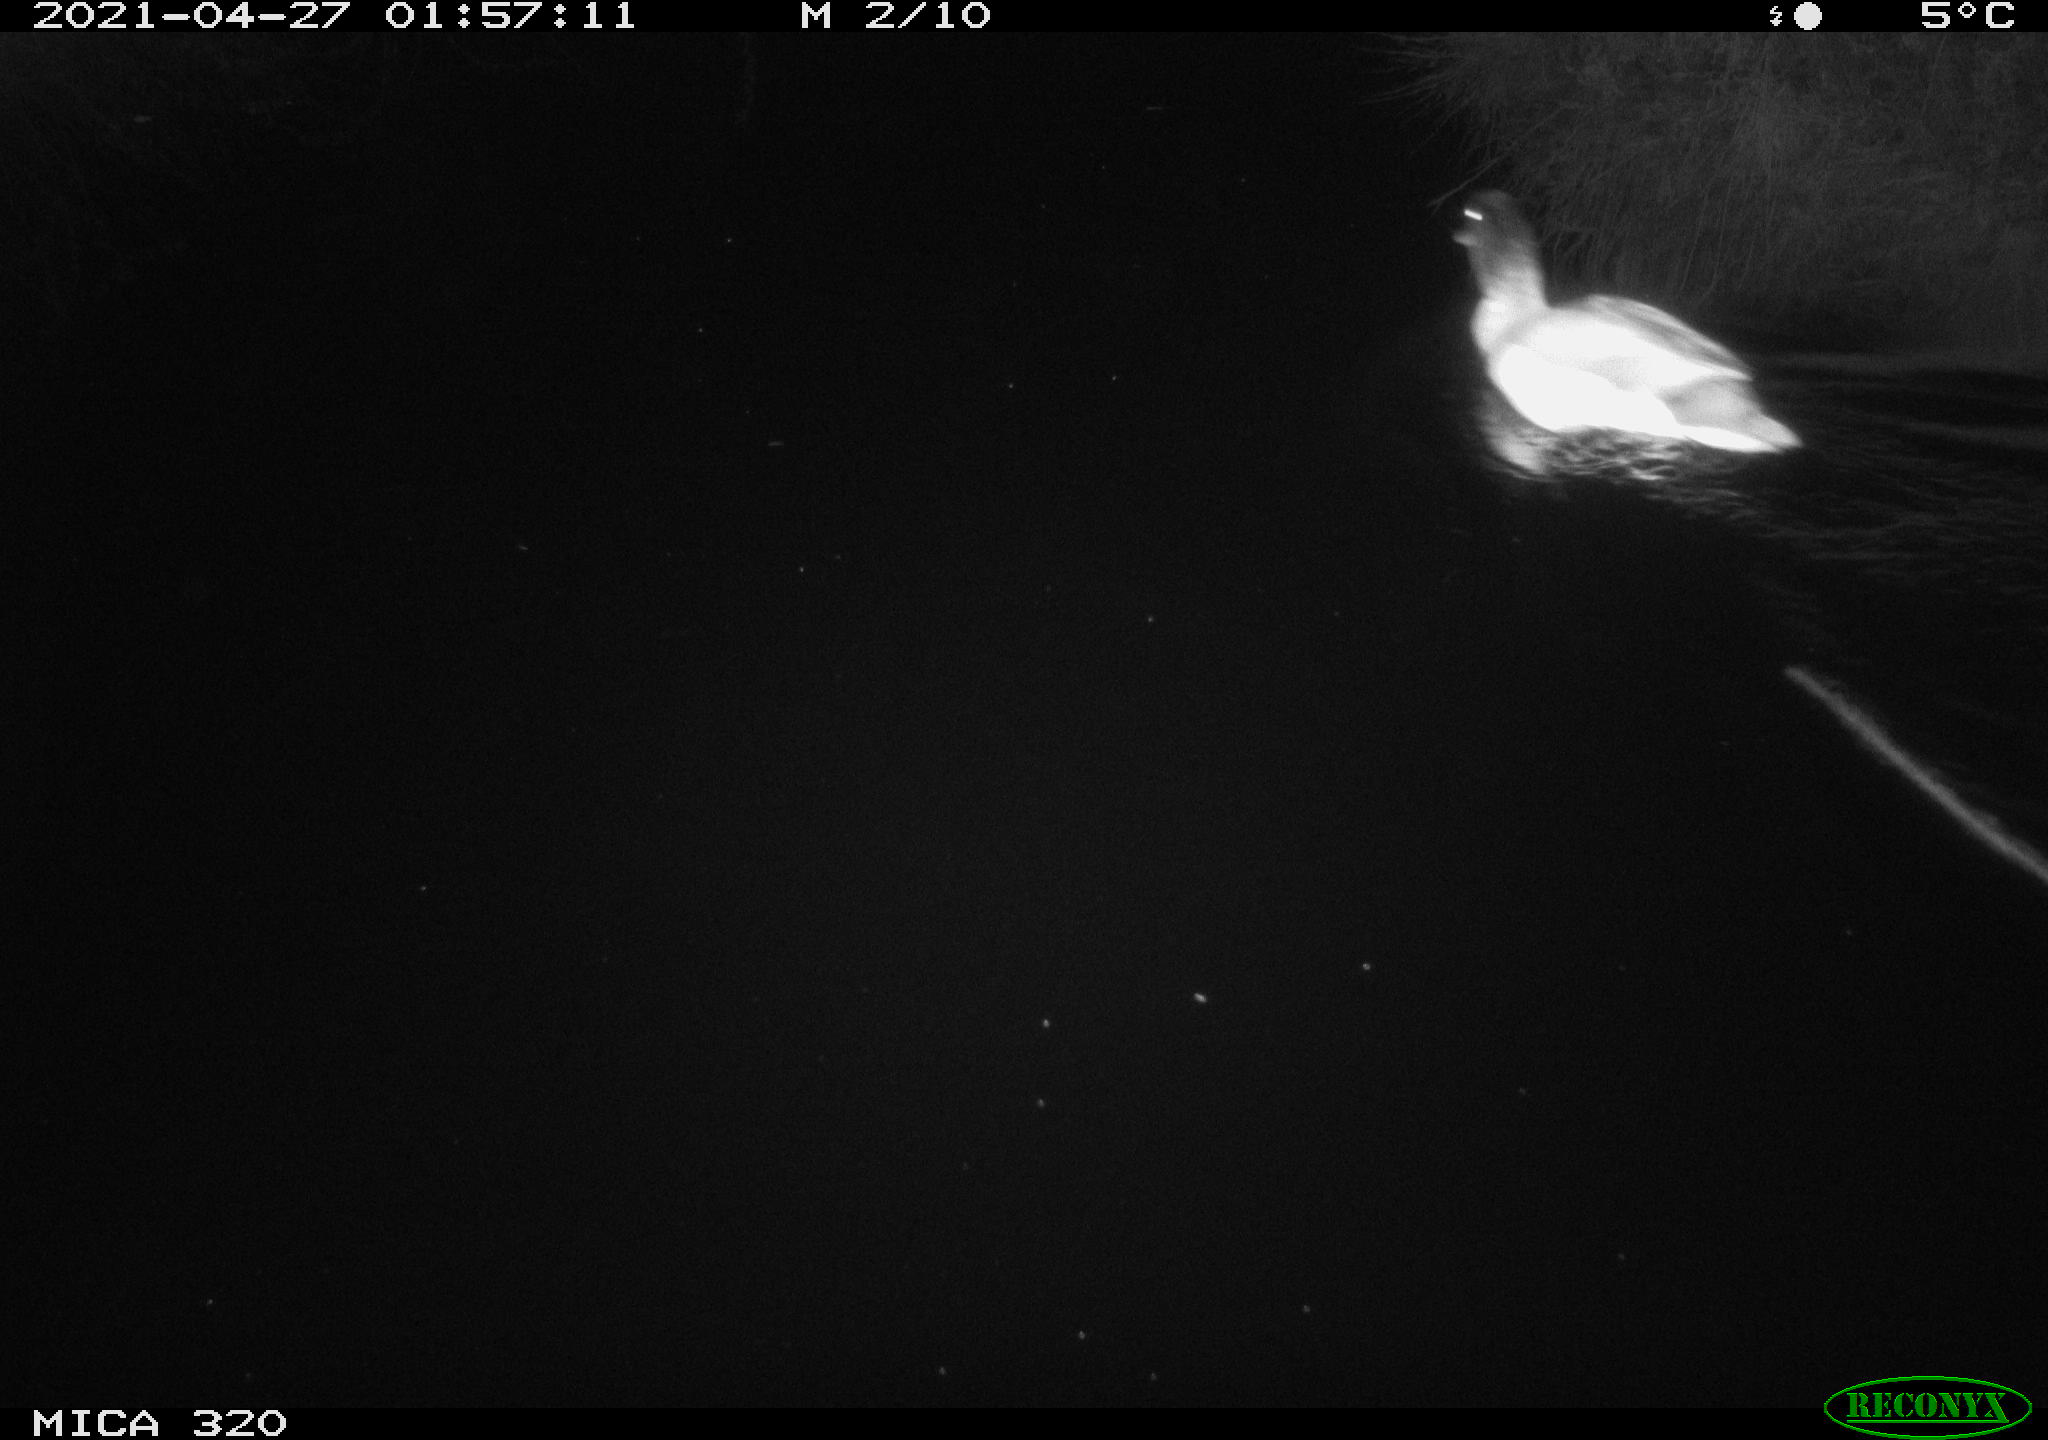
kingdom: Animalia
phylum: Chordata
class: Aves
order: Anseriformes
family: Anatidae
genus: Anas
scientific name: Anas platyrhynchos
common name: Mallard
